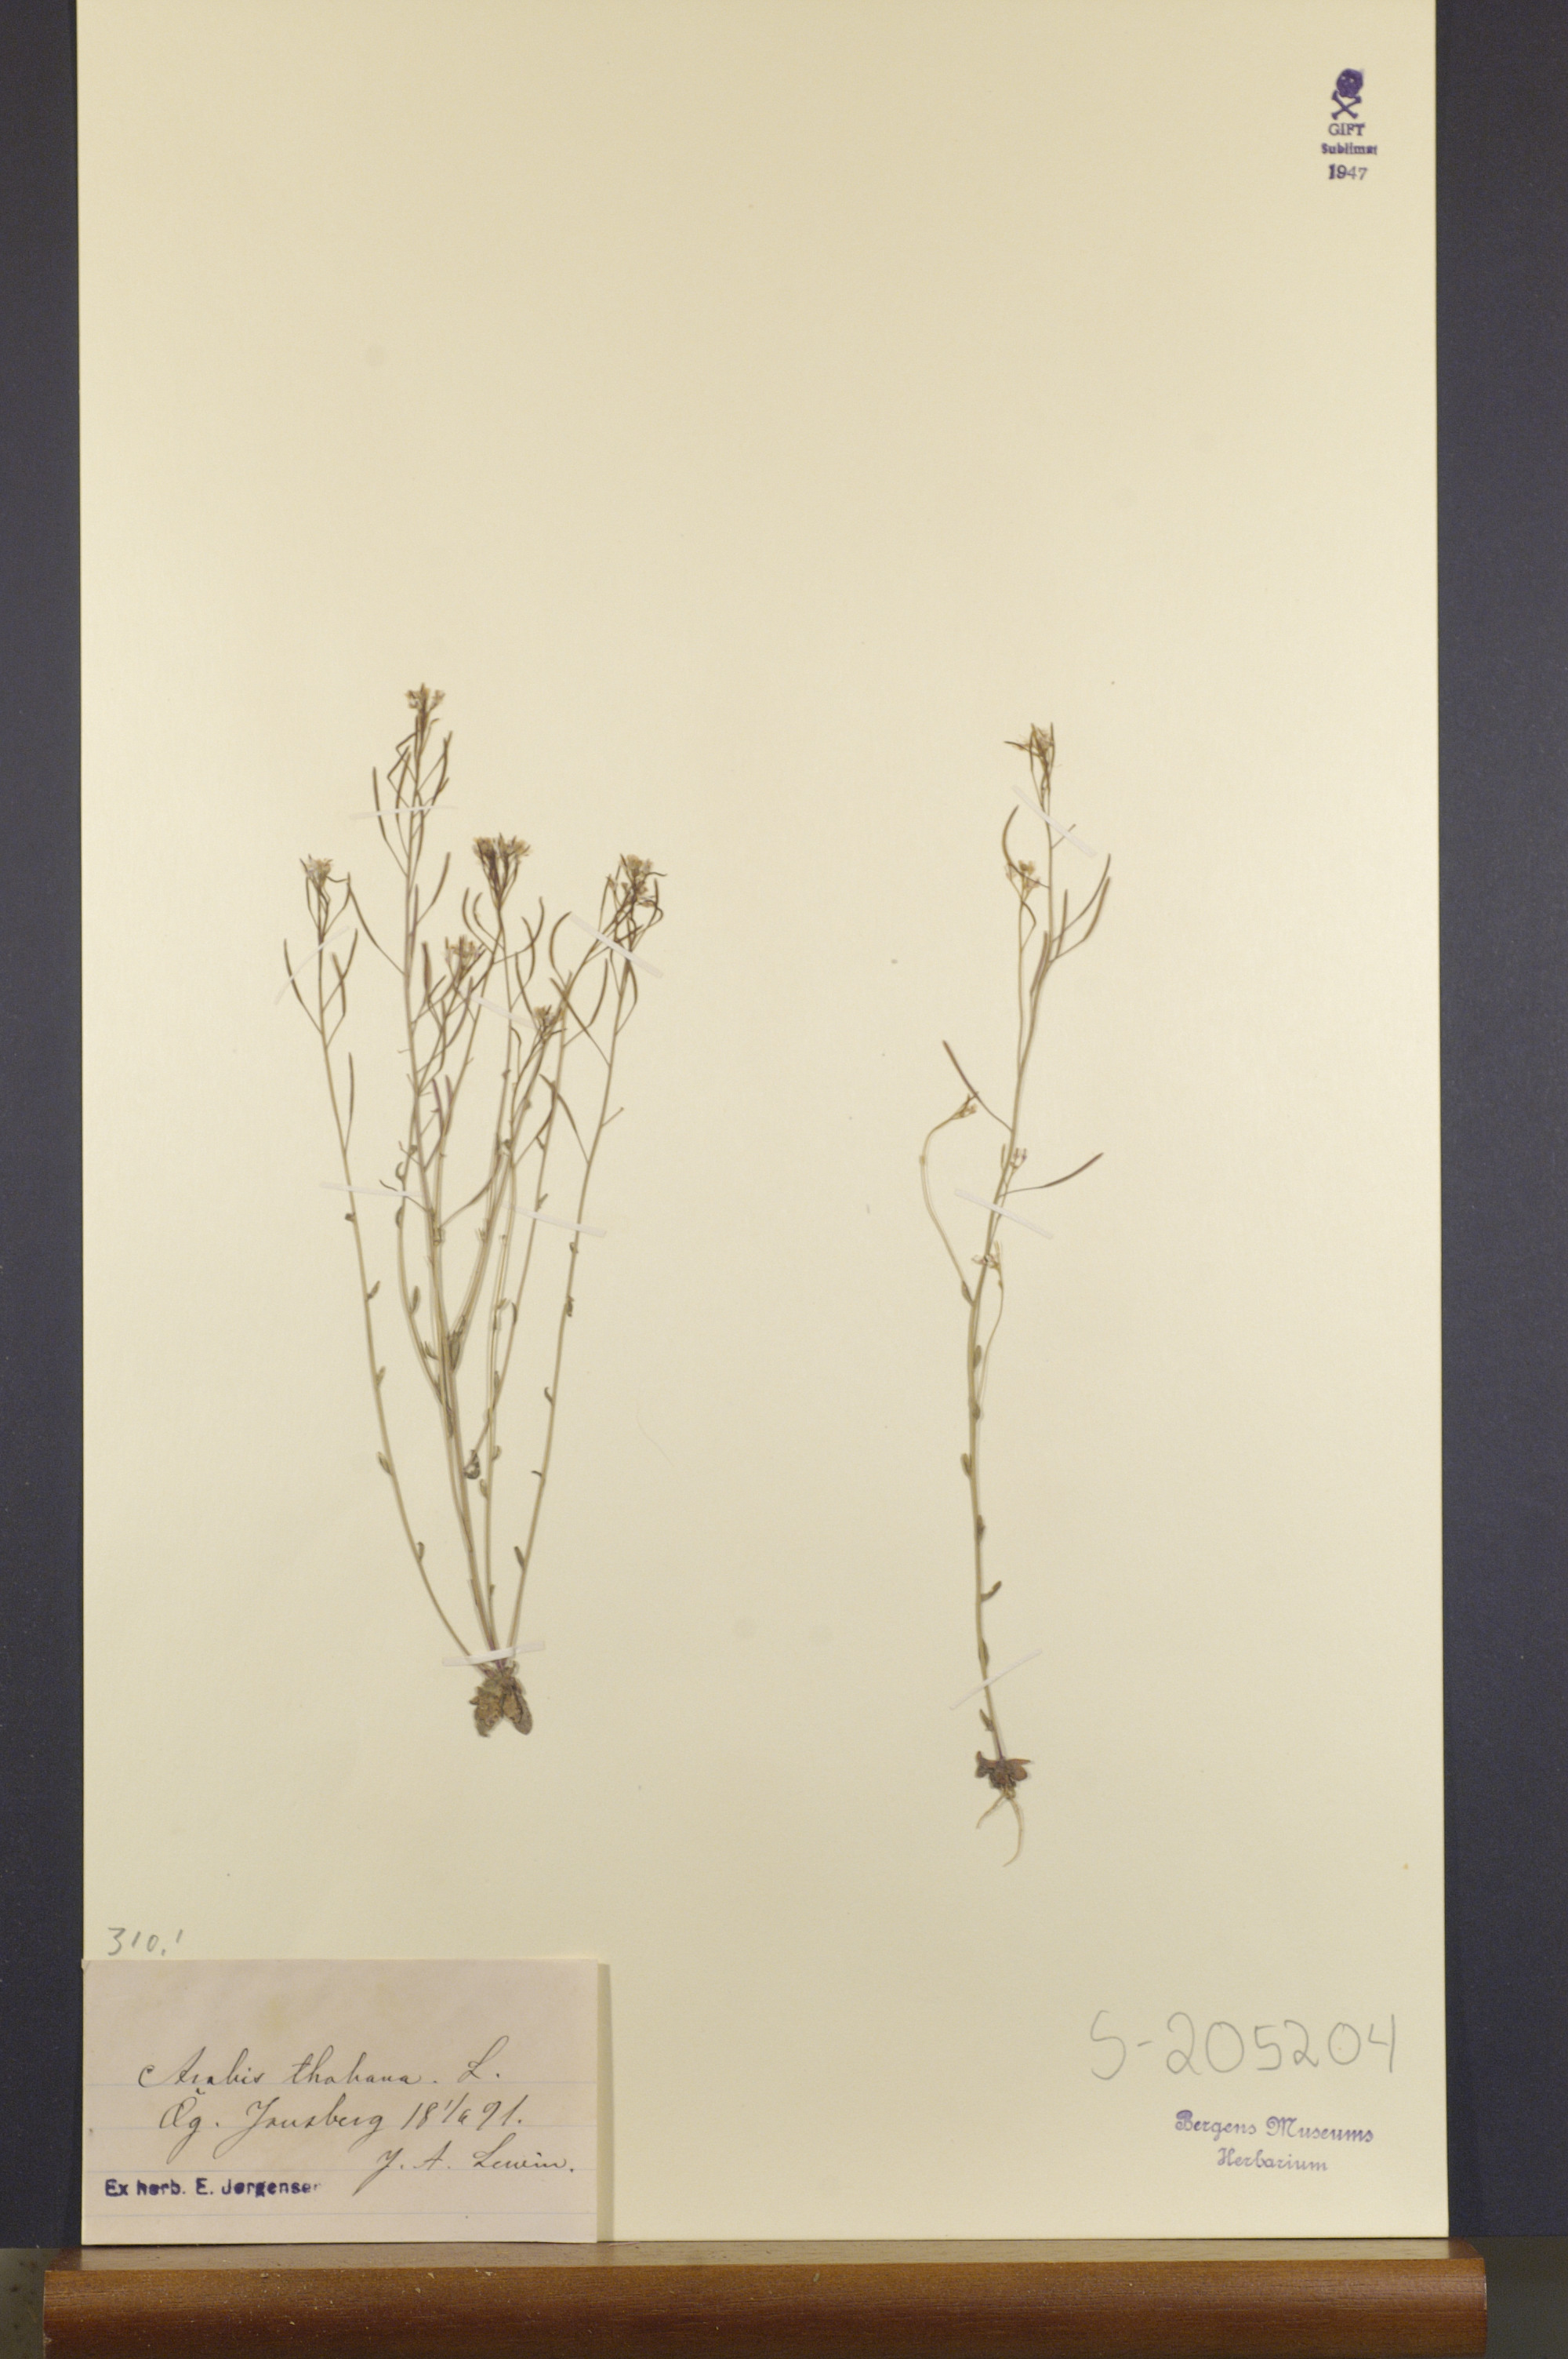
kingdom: Plantae
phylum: Tracheophyta
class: Magnoliopsida
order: Brassicales
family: Brassicaceae
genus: Arabidopsis
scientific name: Arabidopsis thaliana
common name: Thale cress
